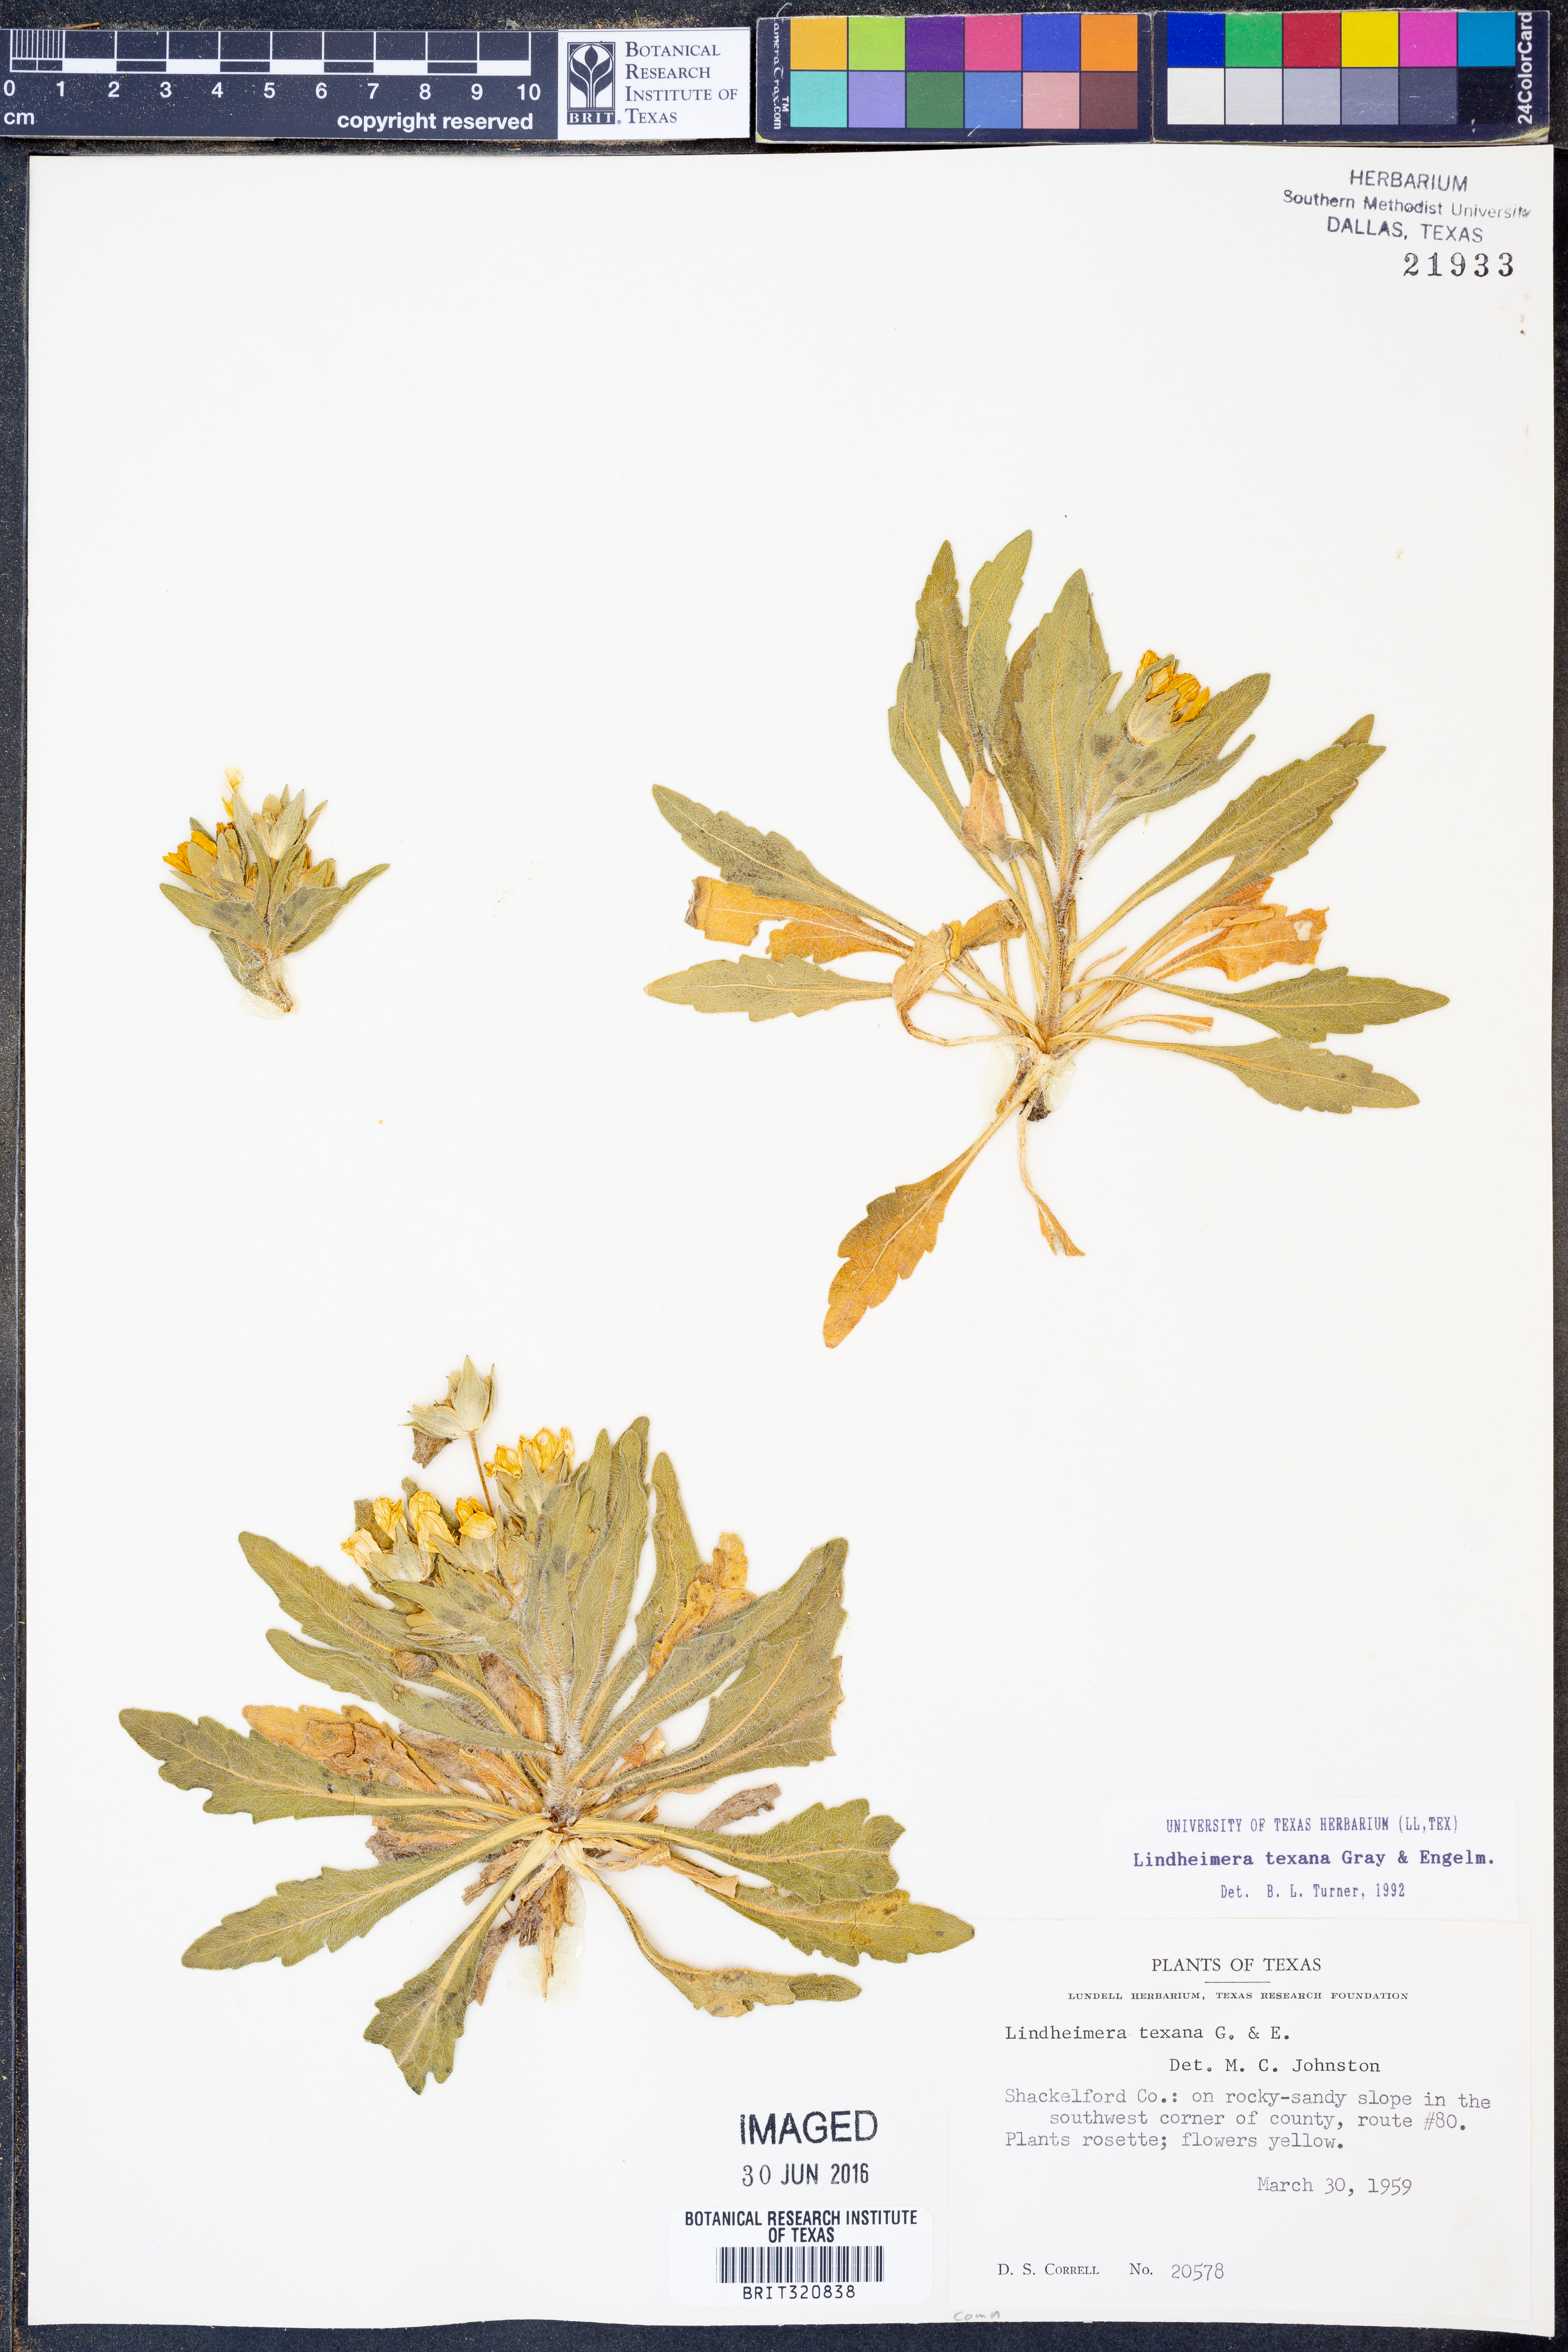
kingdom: Plantae
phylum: Tracheophyta
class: Magnoliopsida
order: Asterales
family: Asteraceae
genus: Lindheimera
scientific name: Lindheimera texana
